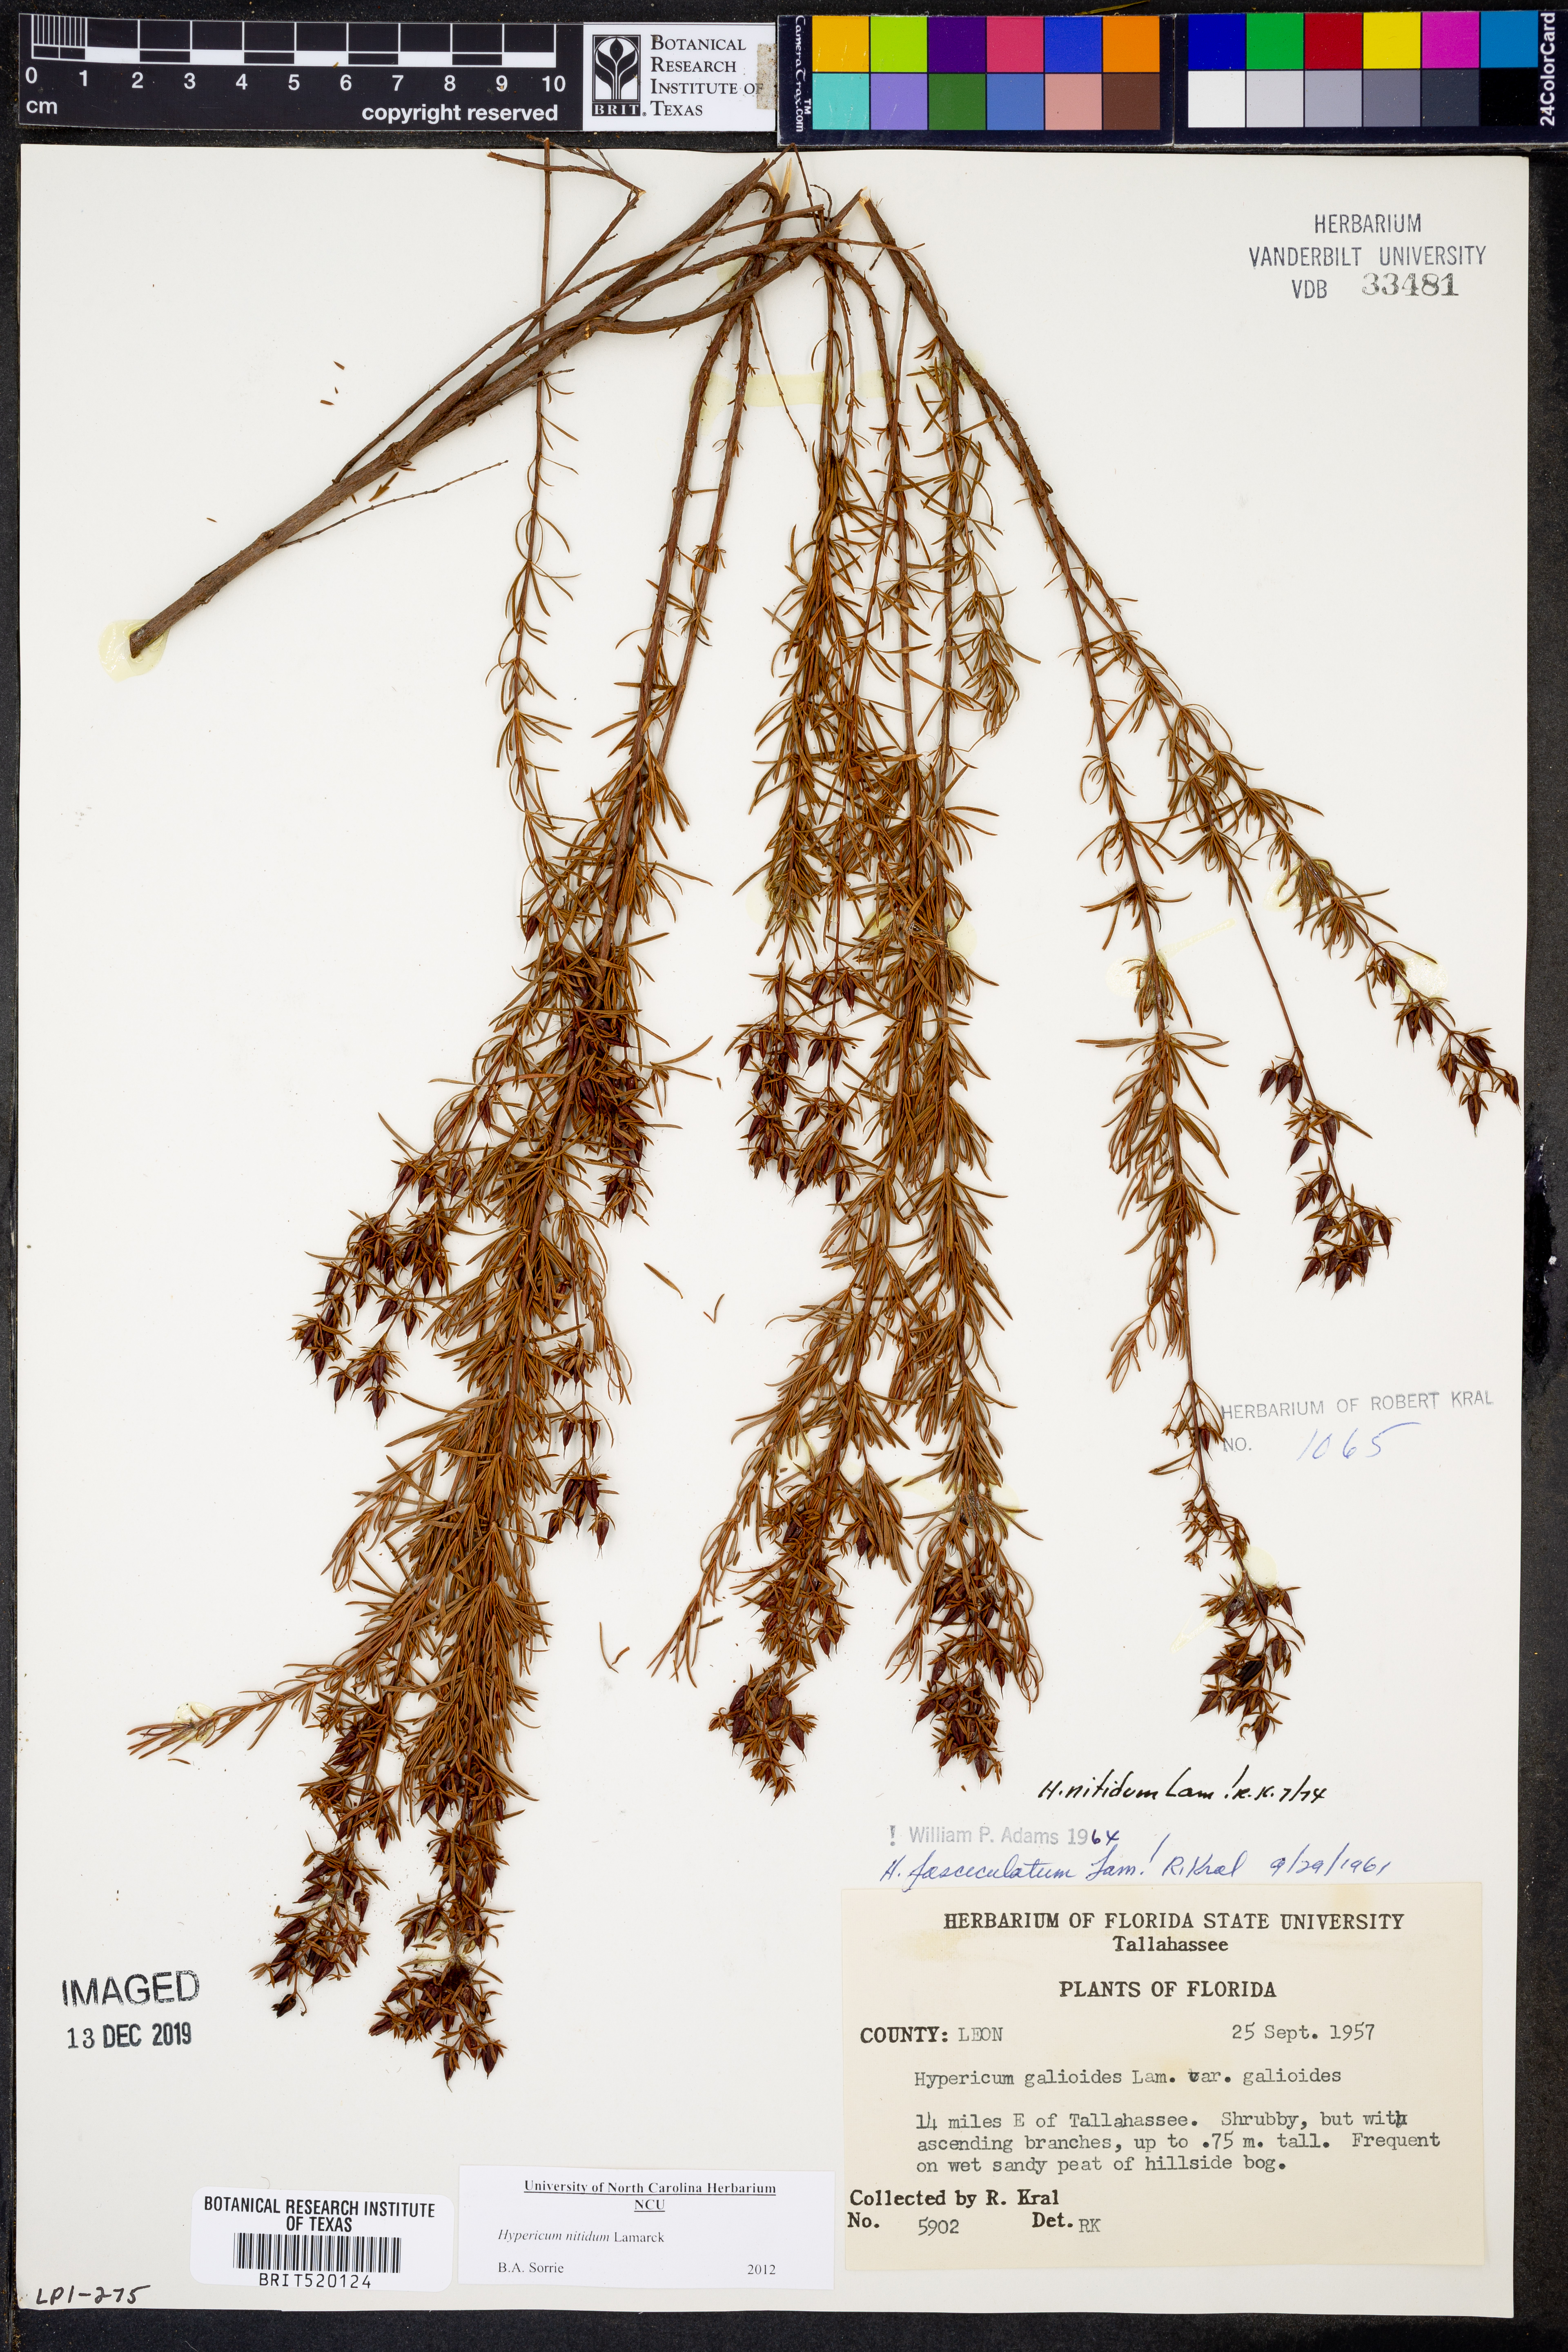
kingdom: Plantae
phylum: Tracheophyta
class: Magnoliopsida
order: Malpighiales
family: Hypericaceae
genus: Hypericum
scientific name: Hypericum nitidum
